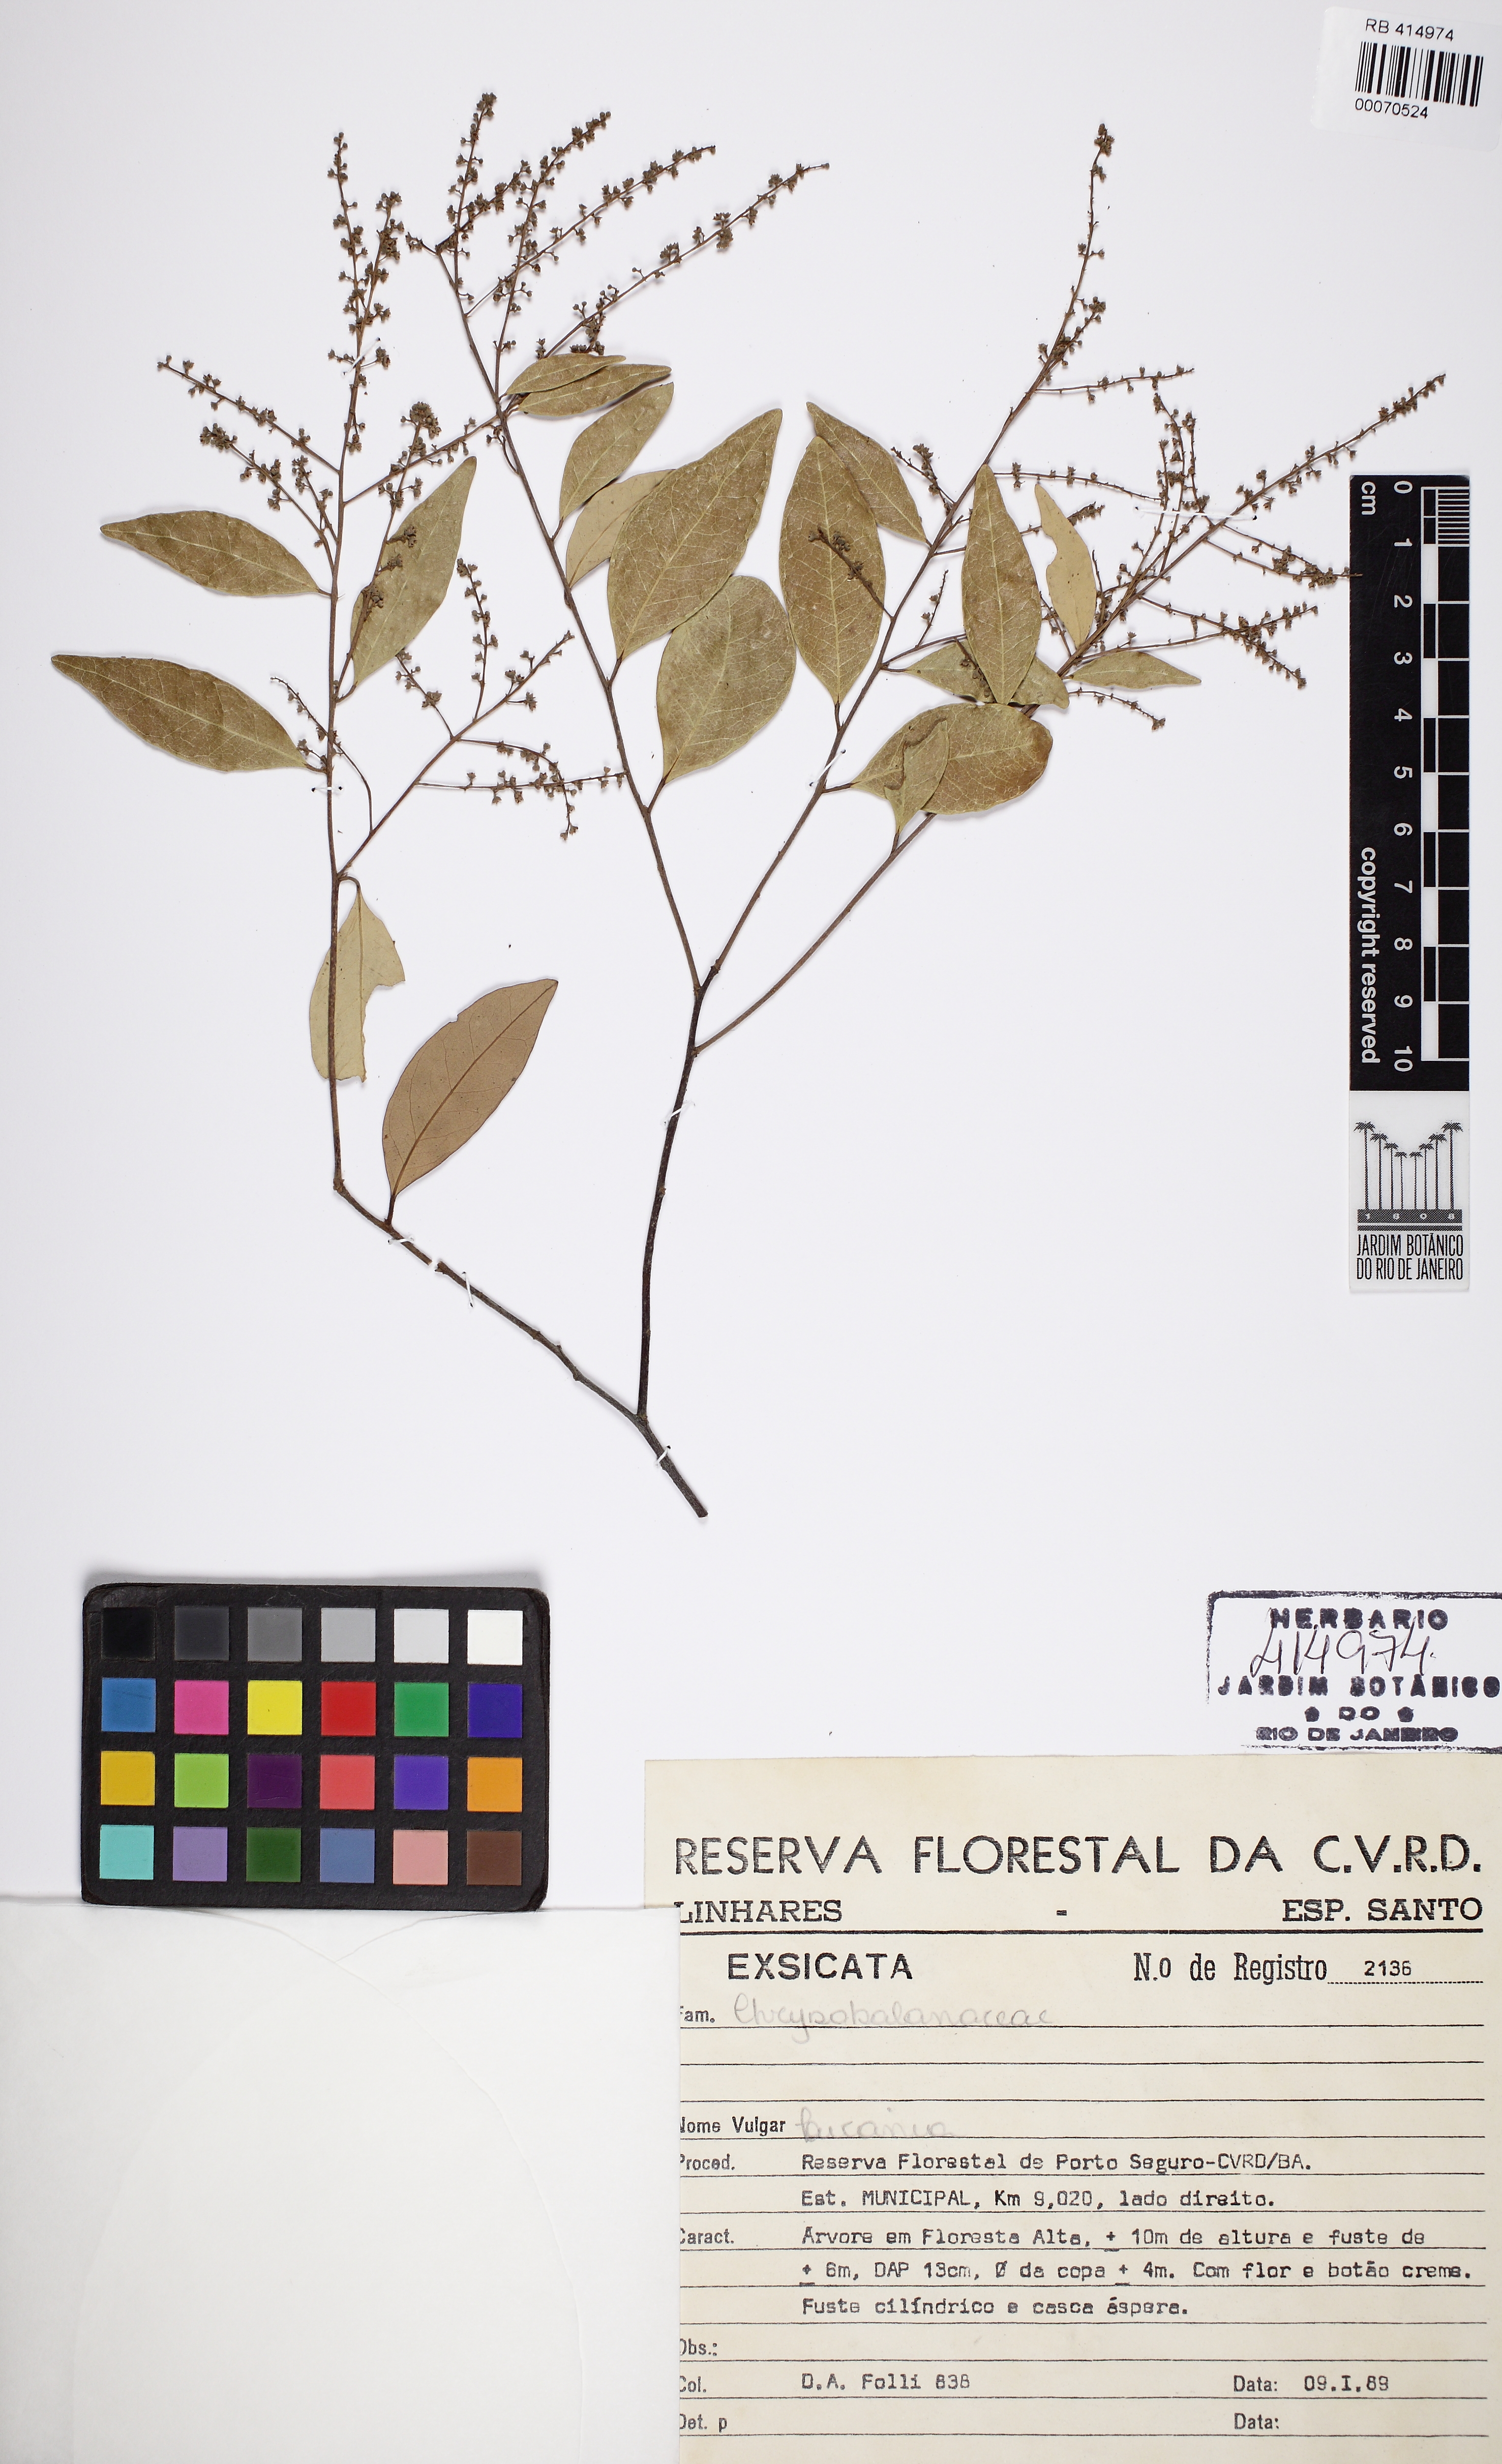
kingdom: Plantae
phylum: Tracheophyta
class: Magnoliopsida
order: Malpighiales
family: Chrysobalanaceae
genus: Licania
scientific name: Licania hypoleuca
